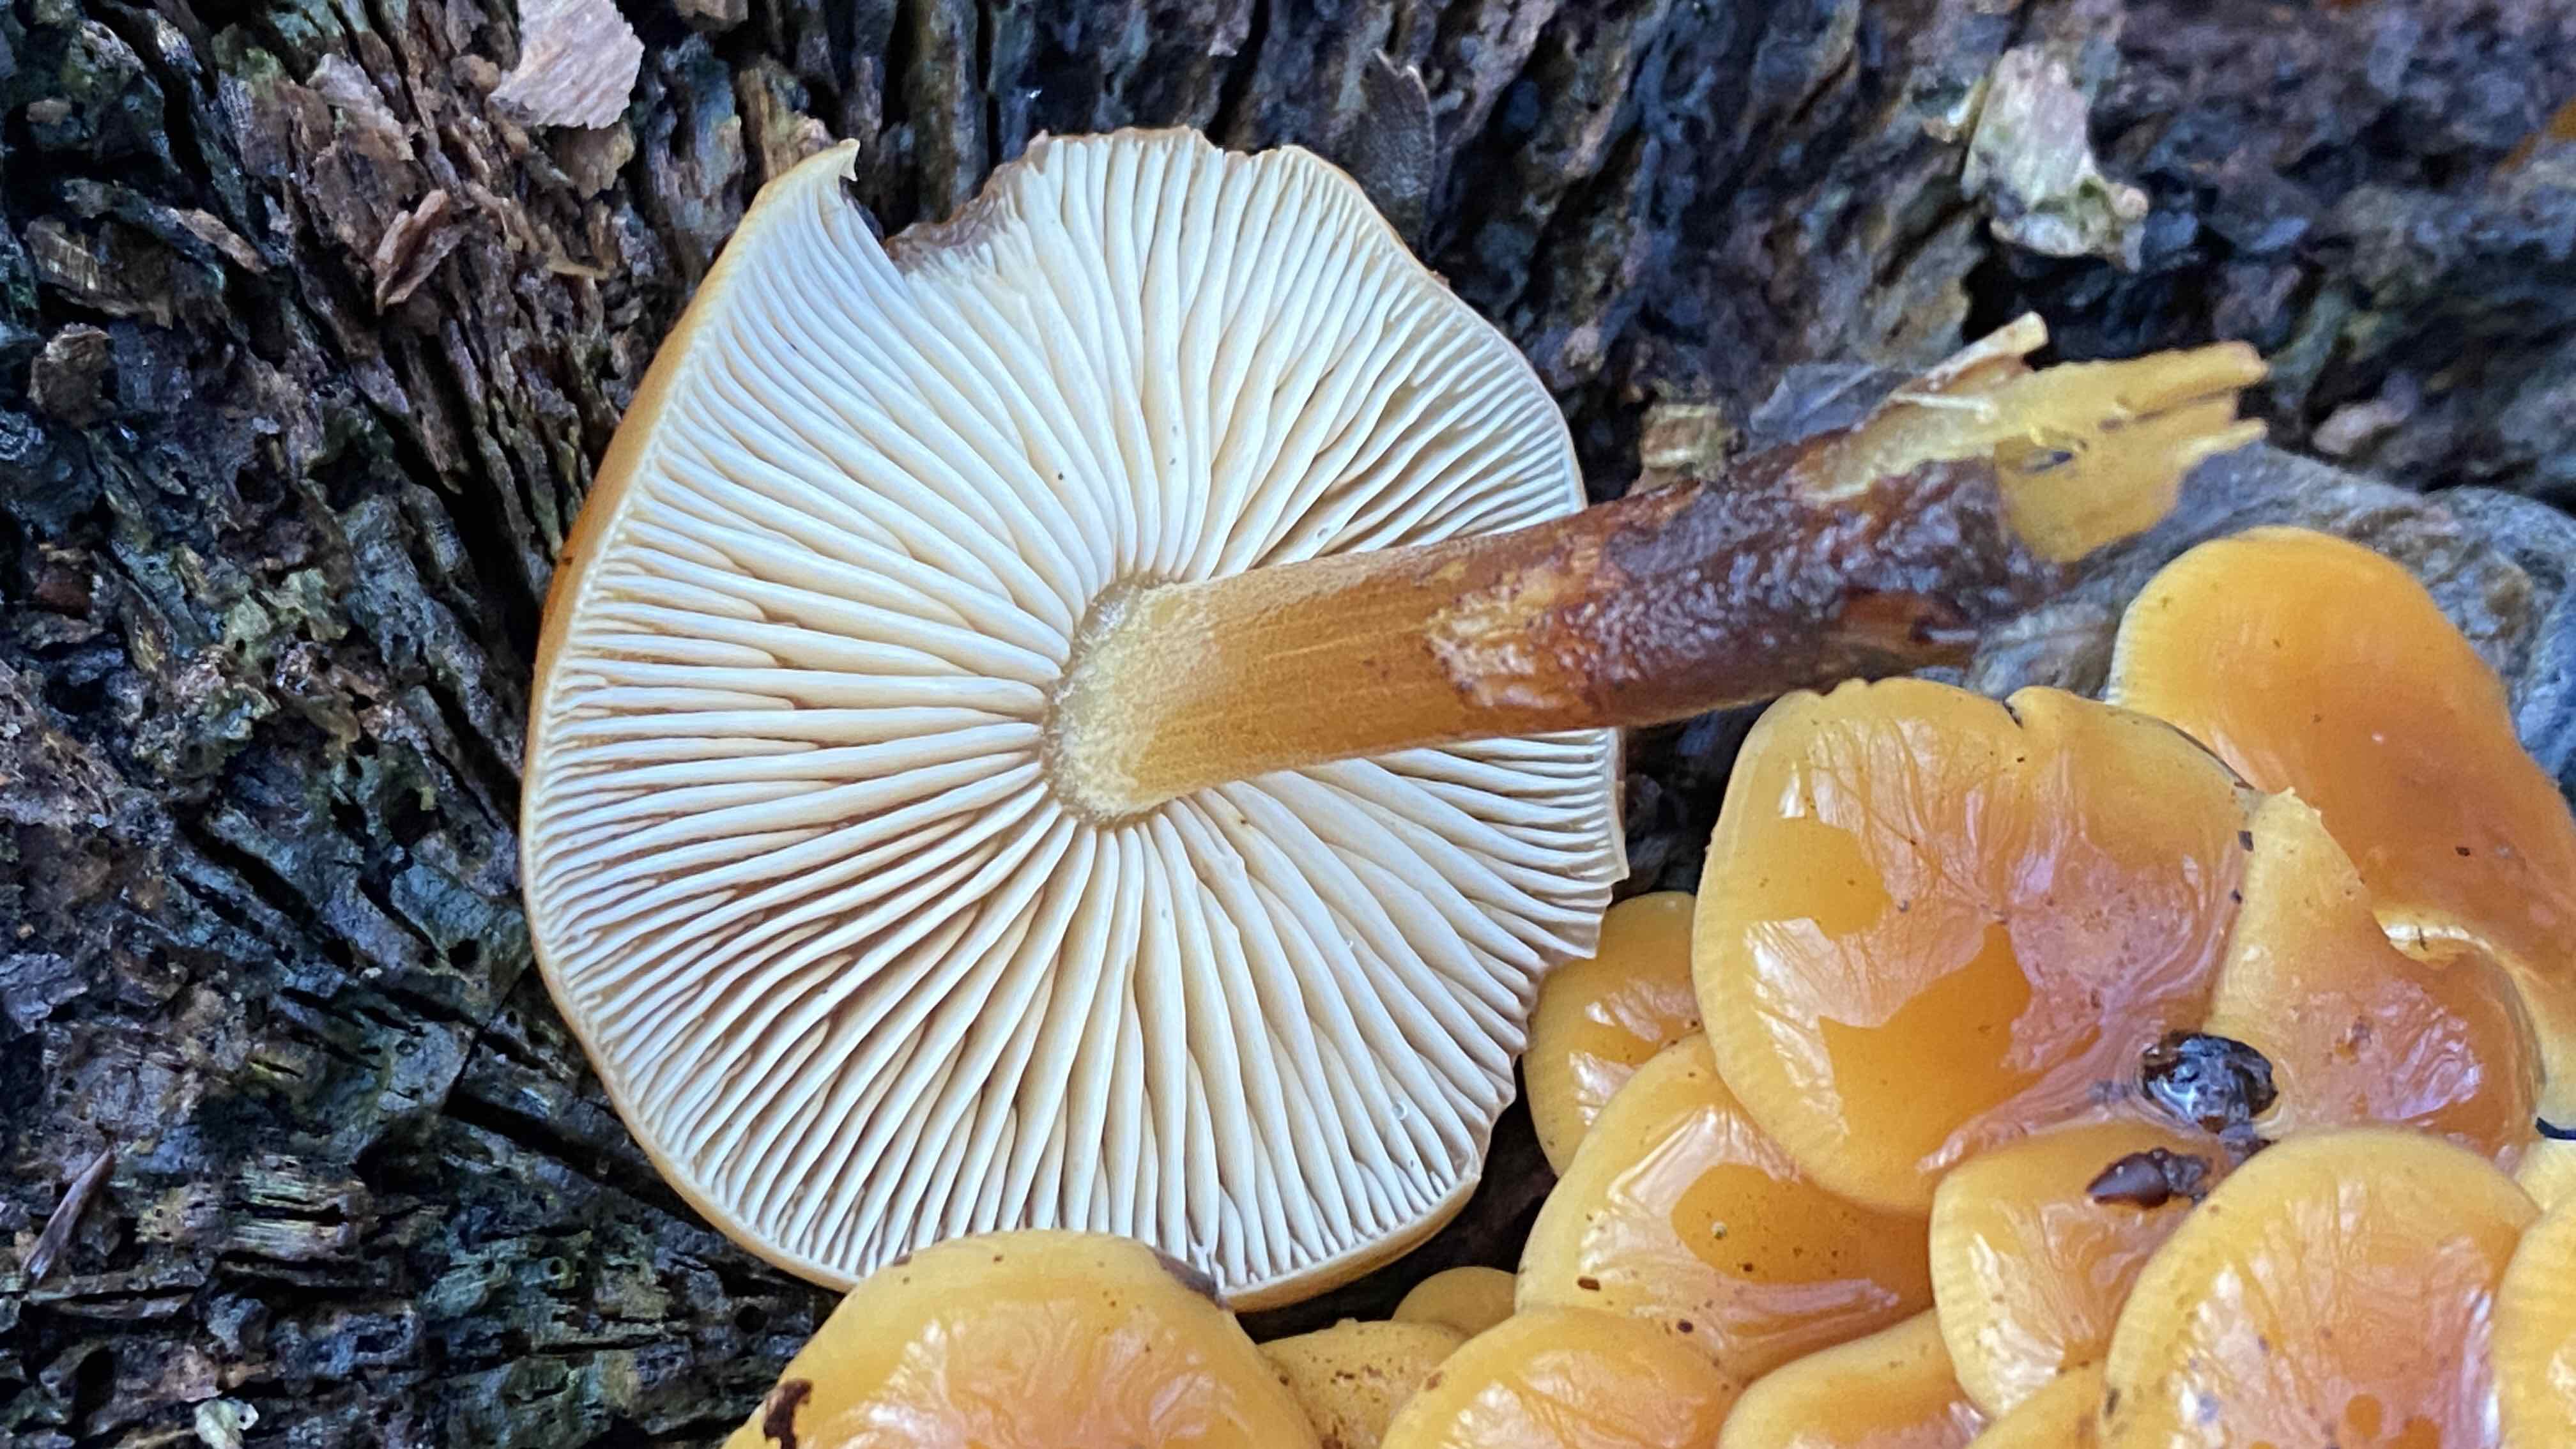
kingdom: Fungi
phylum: Basidiomycota
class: Agaricomycetes
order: Agaricales
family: Physalacriaceae
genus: Flammulina
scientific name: Flammulina velutipes
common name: gul fløjlsfod
